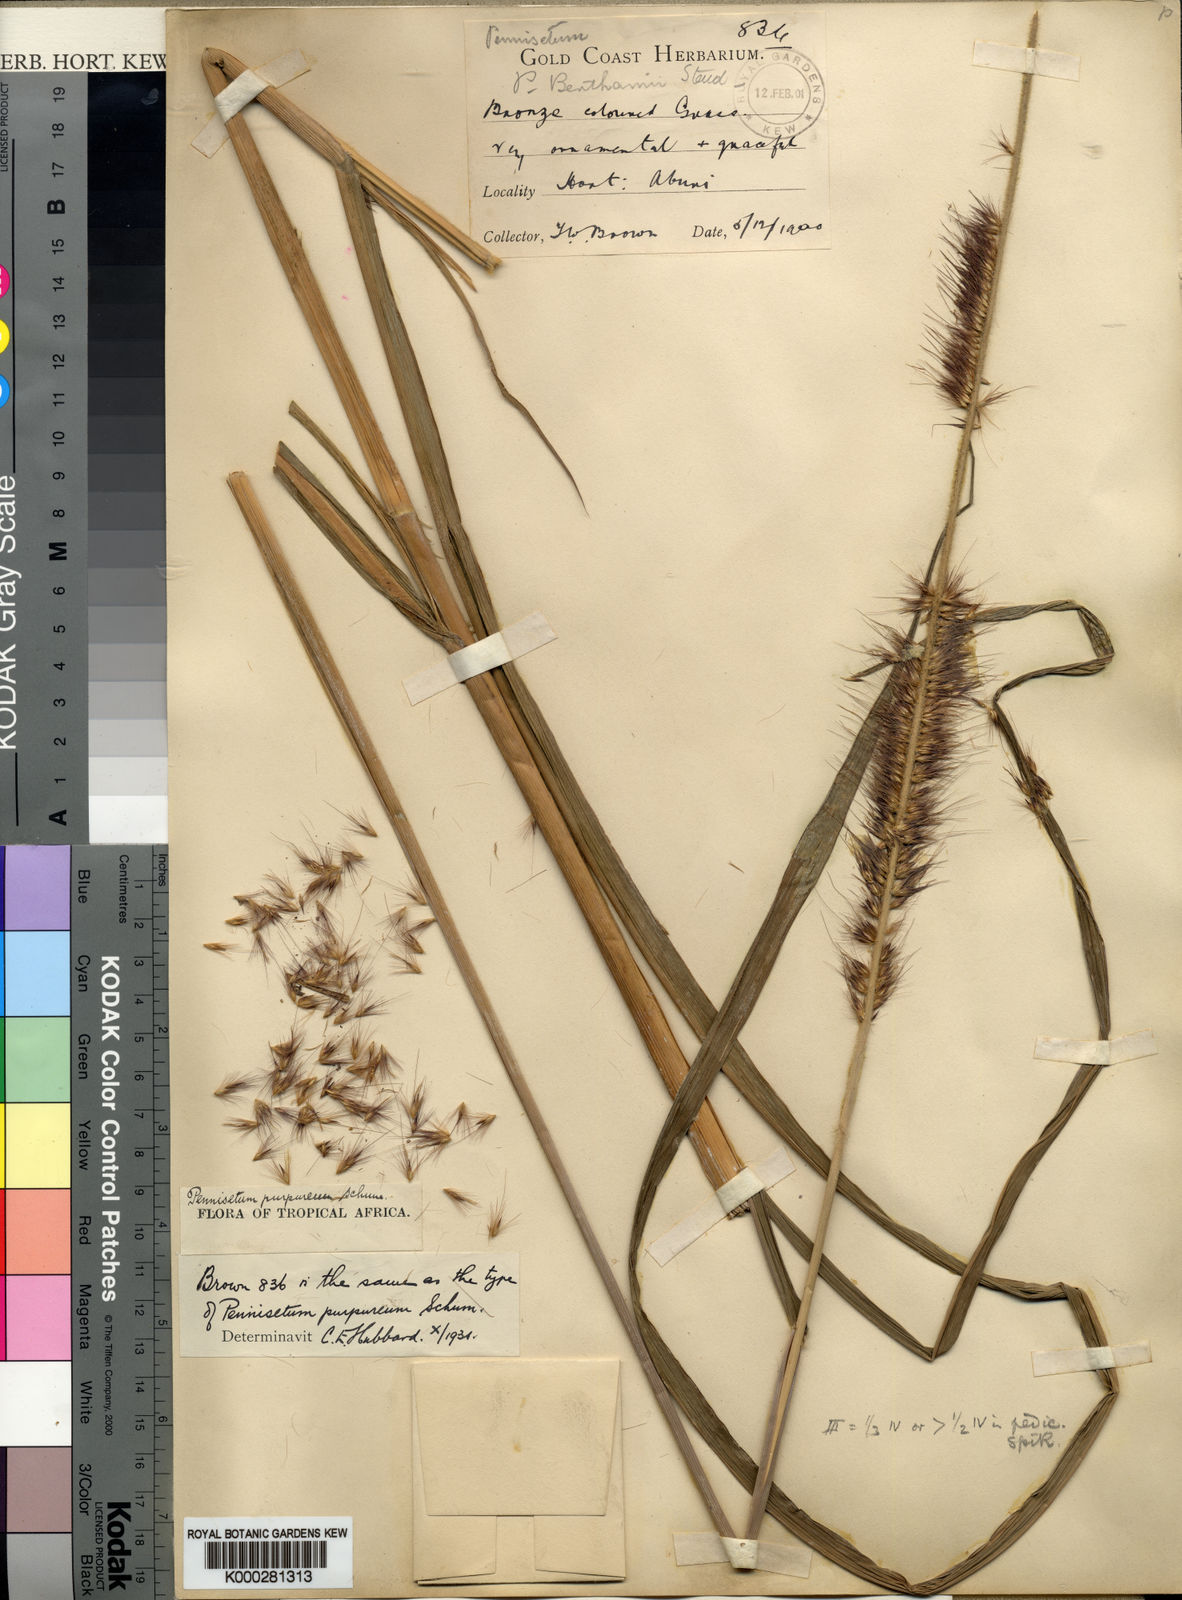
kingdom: Plantae
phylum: Tracheophyta
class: Liliopsida
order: Poales
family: Poaceae
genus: Cenchrus
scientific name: Cenchrus purpureus
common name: Elephant grass
